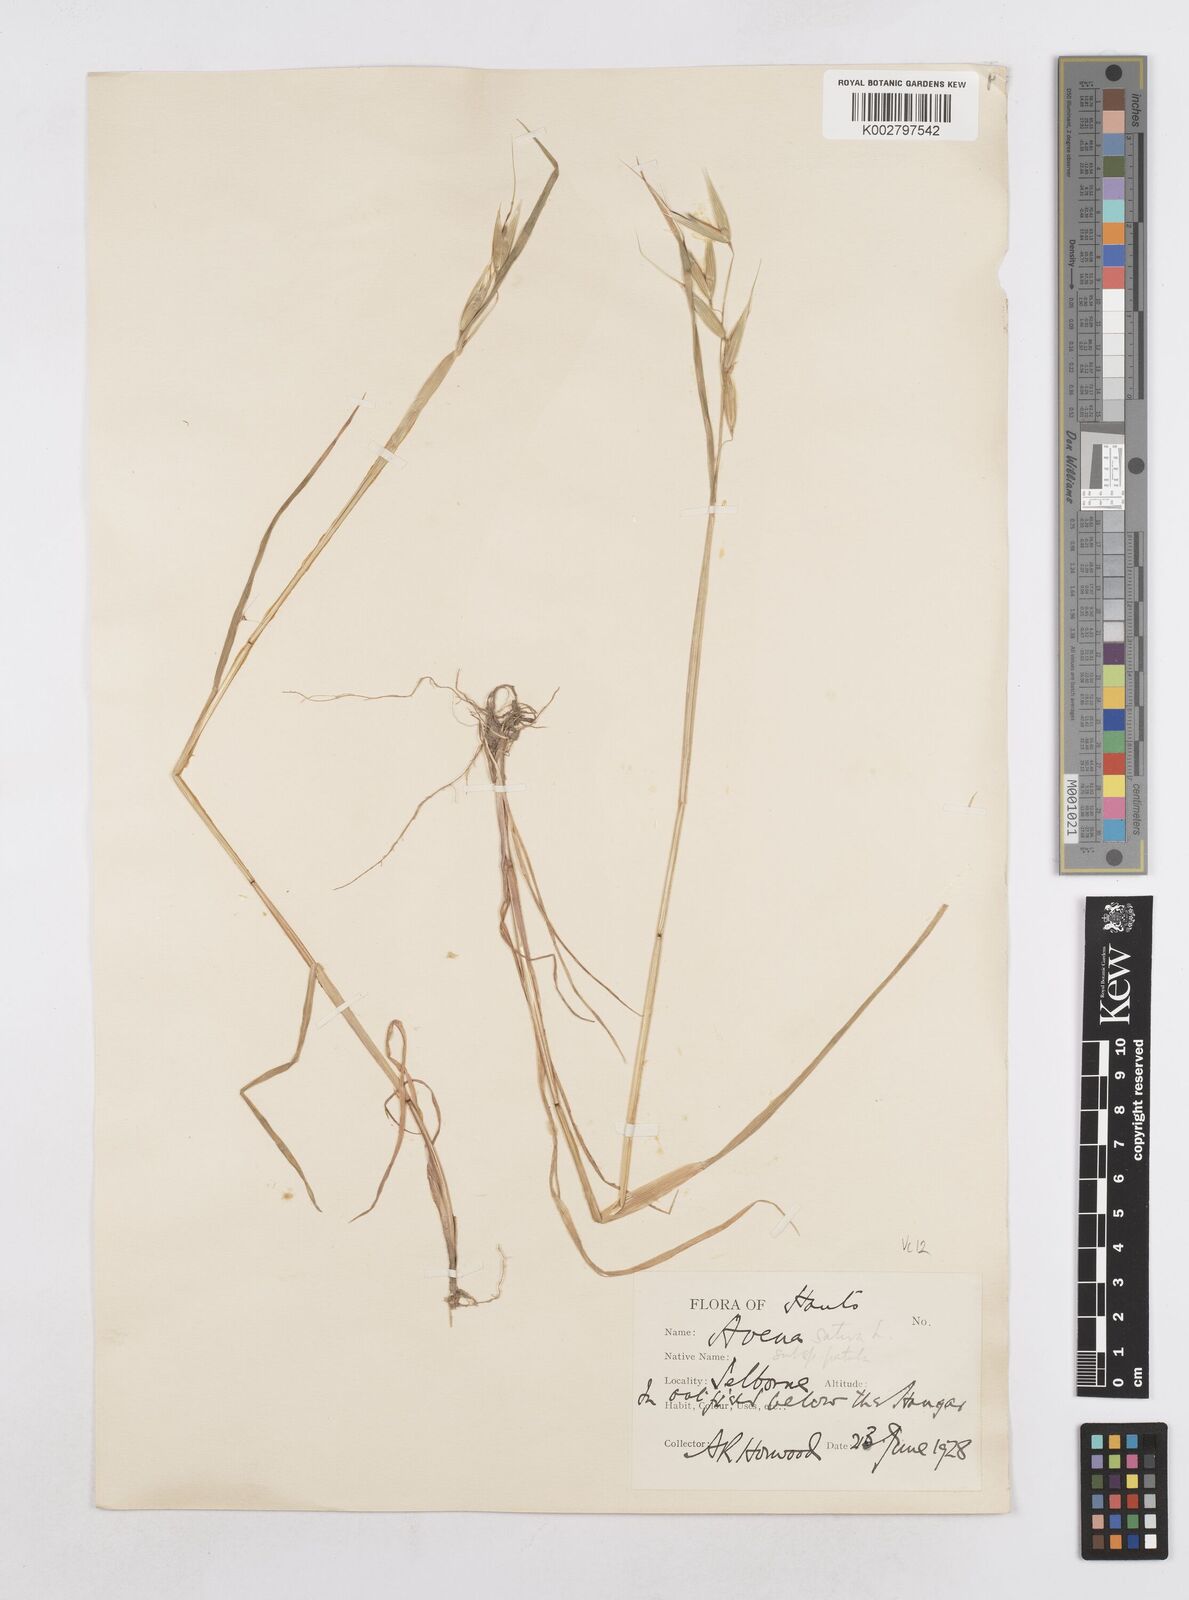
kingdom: Plantae
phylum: Tracheophyta
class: Liliopsida
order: Poales
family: Poaceae
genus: Avena
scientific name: Avena sativa
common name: Oat
